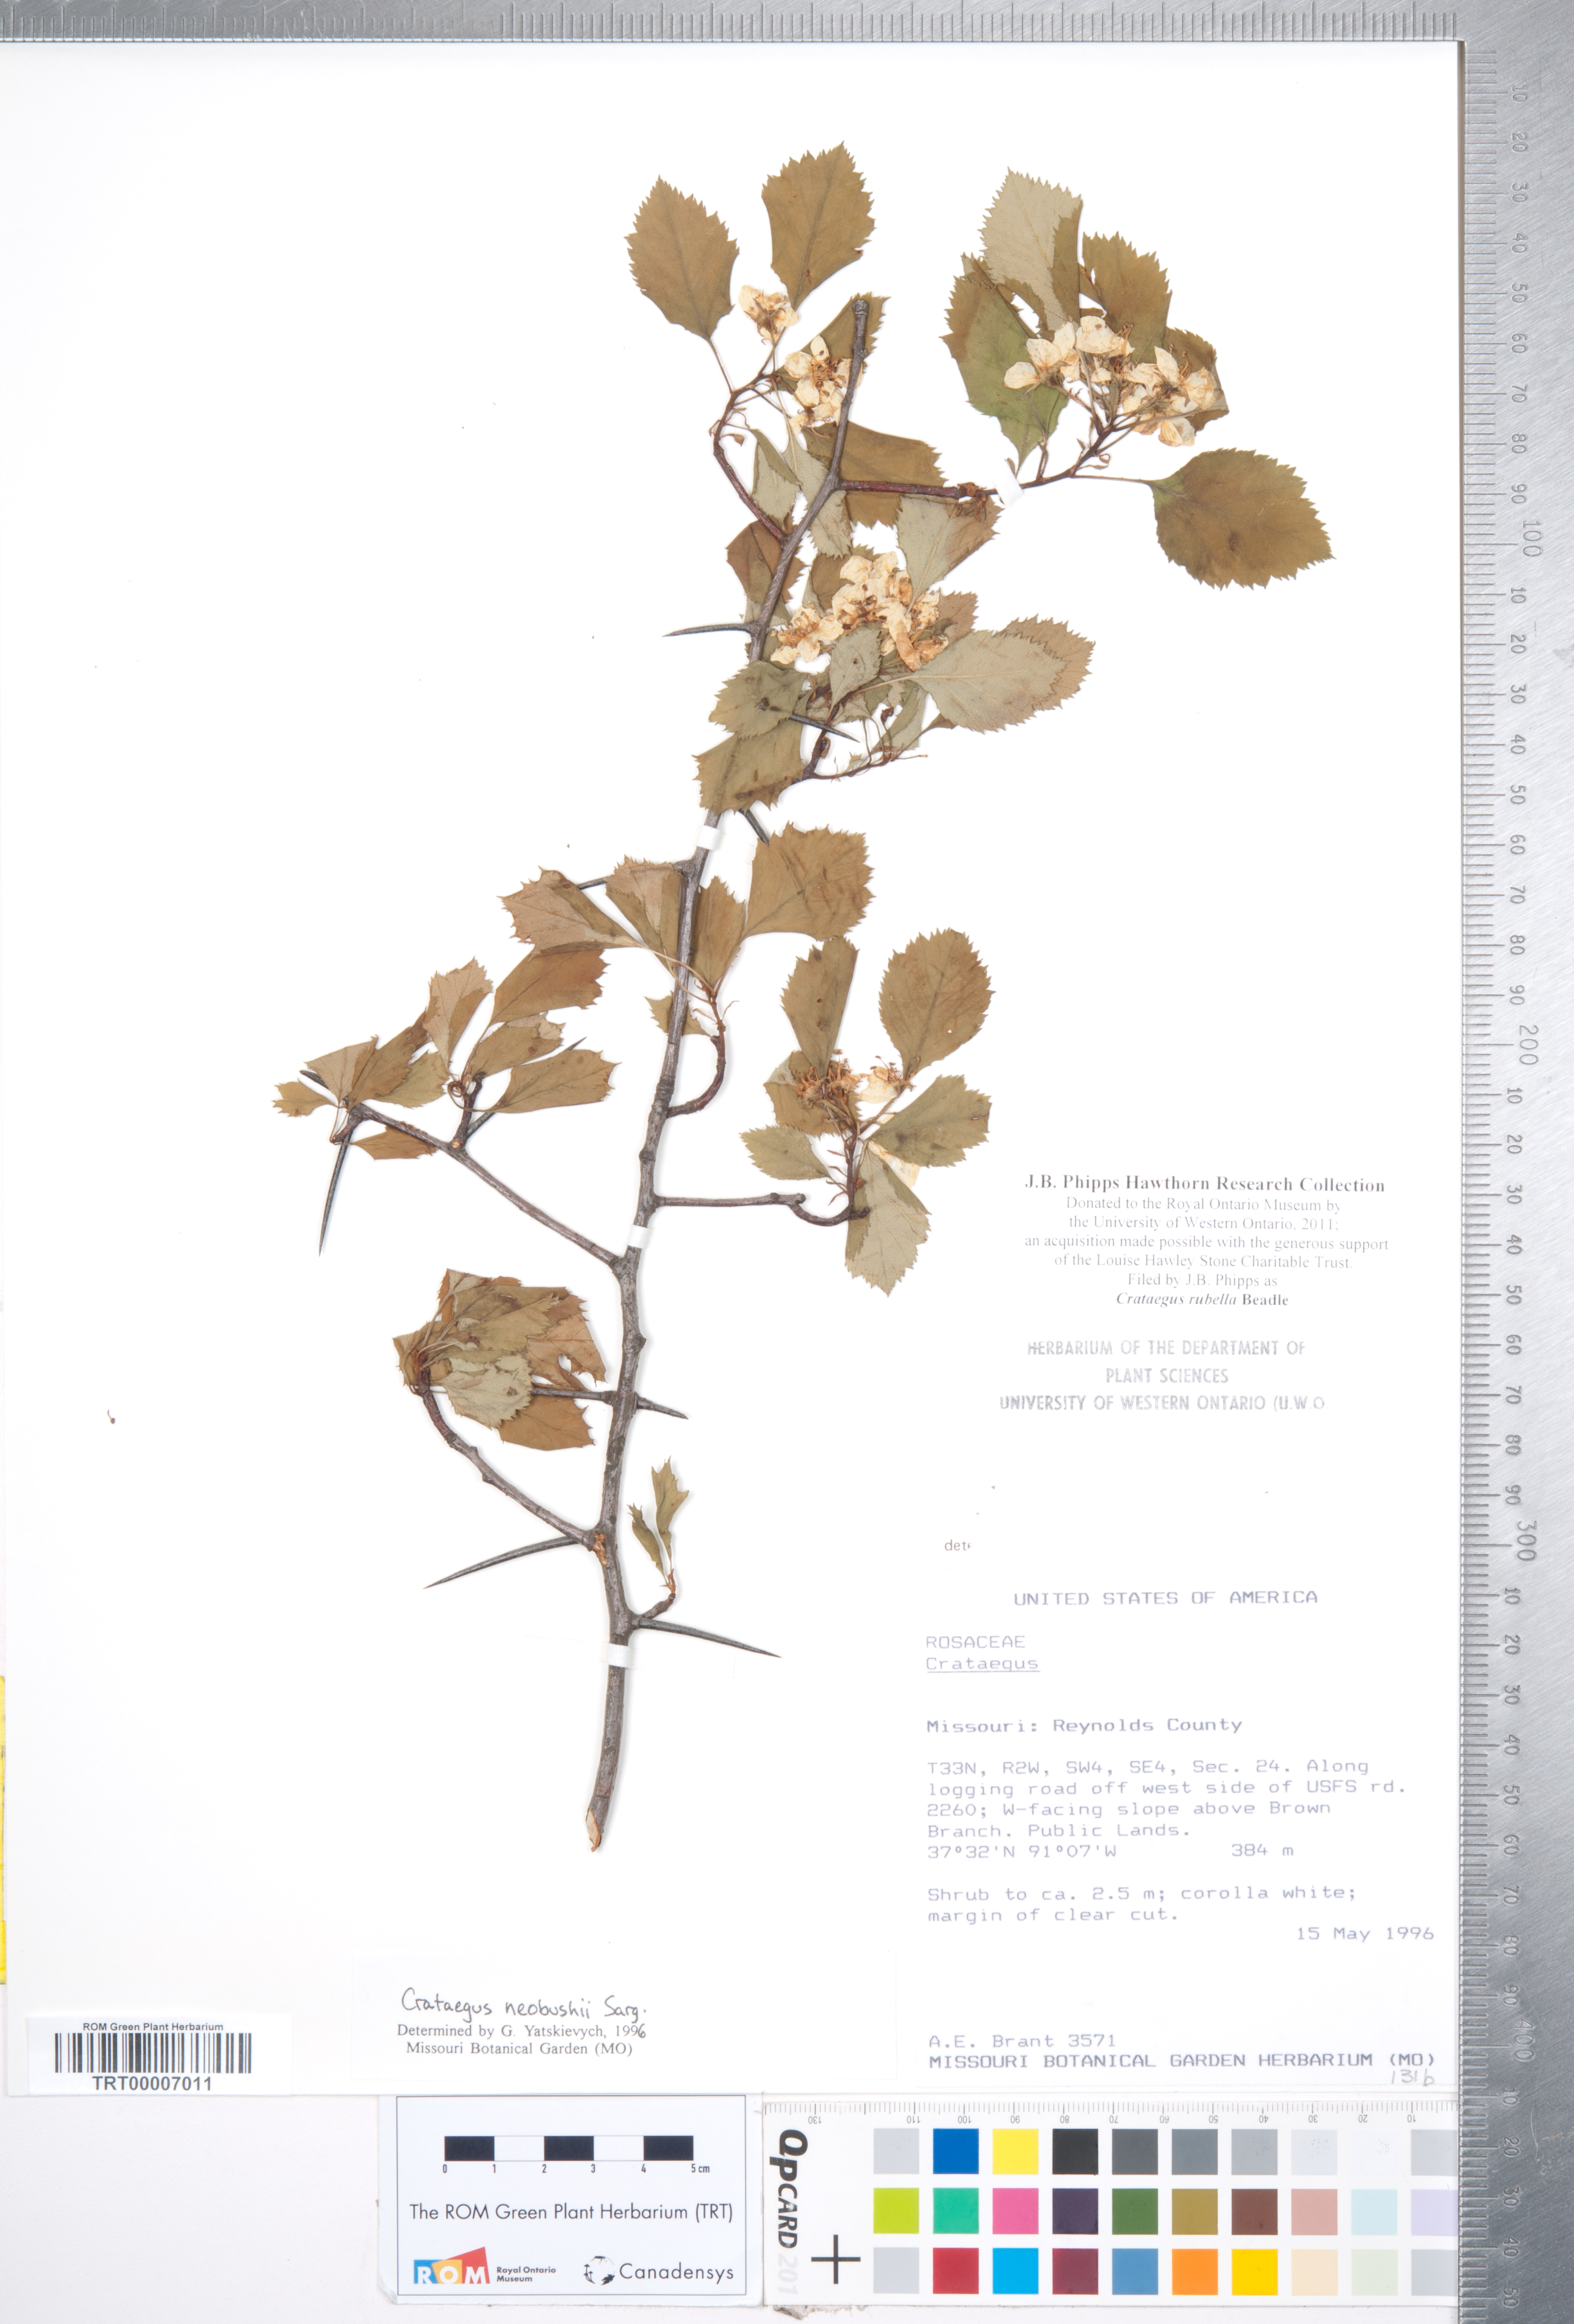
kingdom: Plantae
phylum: Tracheophyta
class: Magnoliopsida
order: Rosales
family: Rosaceae
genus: Crataegus
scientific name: Crataegus intricata
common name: Biltmore hawthorn
